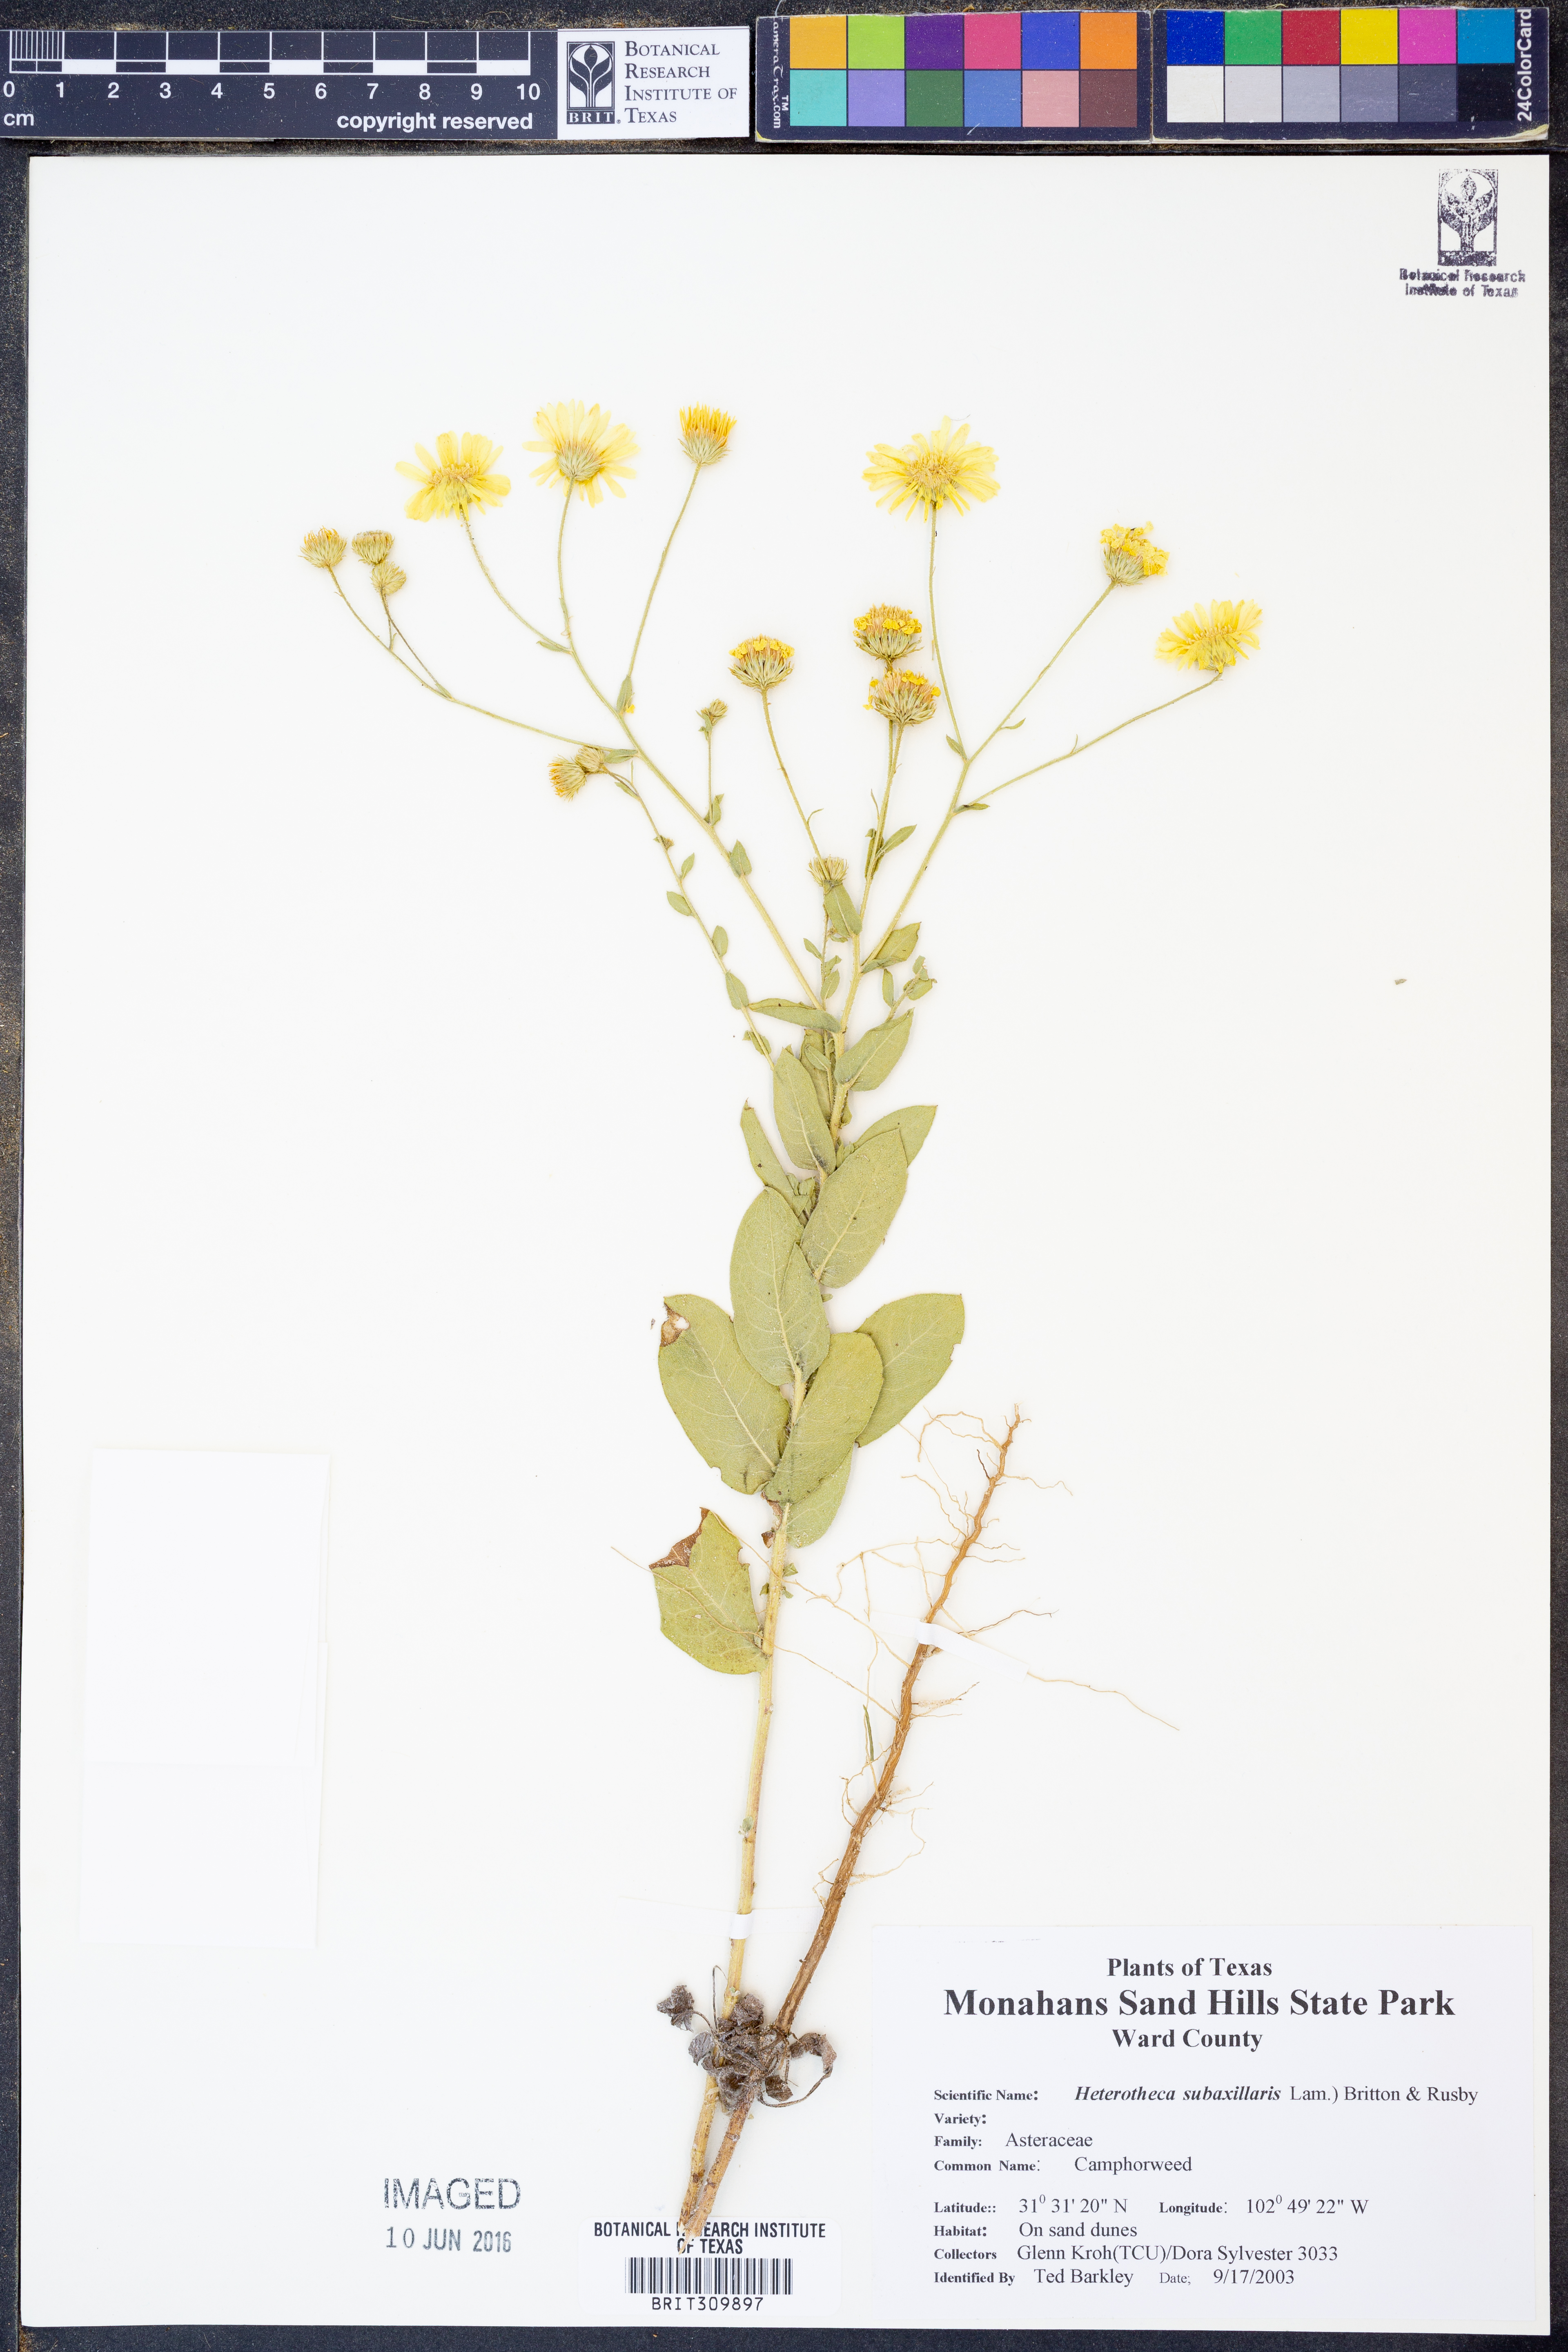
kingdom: Plantae
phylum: Tracheophyta
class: Magnoliopsida
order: Asterales
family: Asteraceae
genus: Heterotheca
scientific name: Heterotheca subaxillaris
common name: Camphorweed
